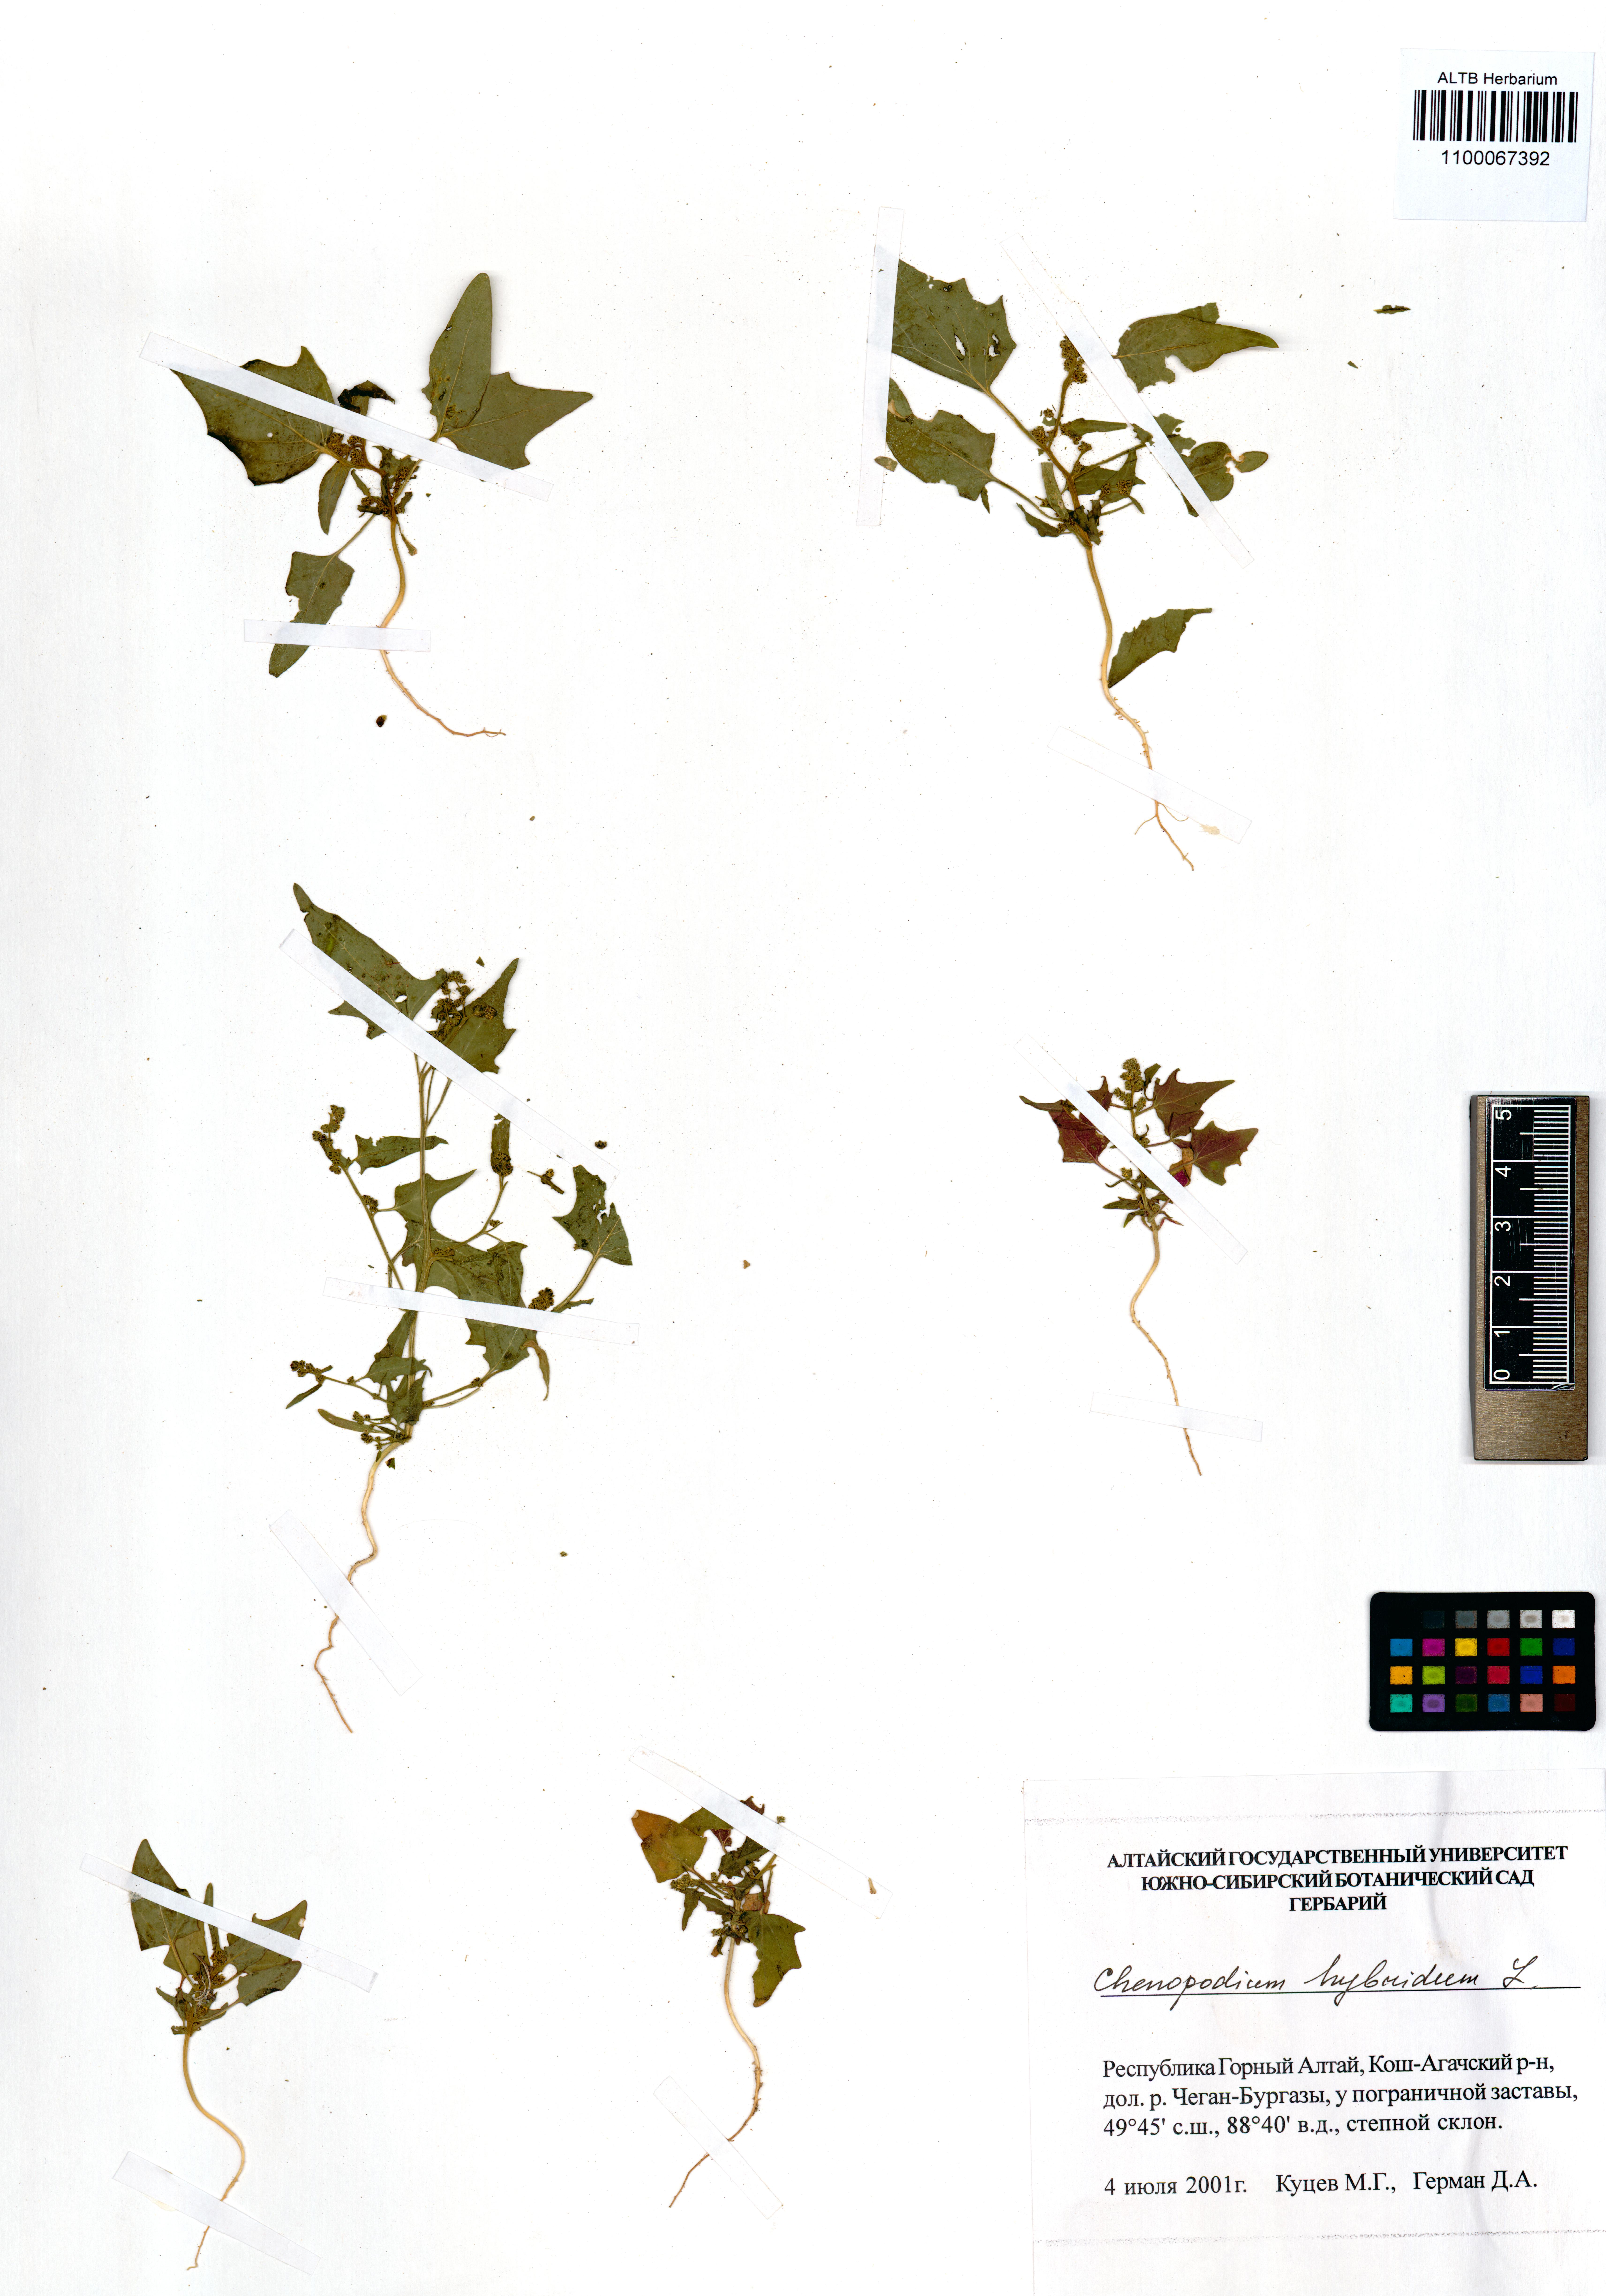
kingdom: Plantae
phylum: Tracheophyta
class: Magnoliopsida
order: Caryophyllales
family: Amaranthaceae
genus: Chenopodiastrum
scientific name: Chenopodiastrum hybridum
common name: Mapleleaf goosefoot
